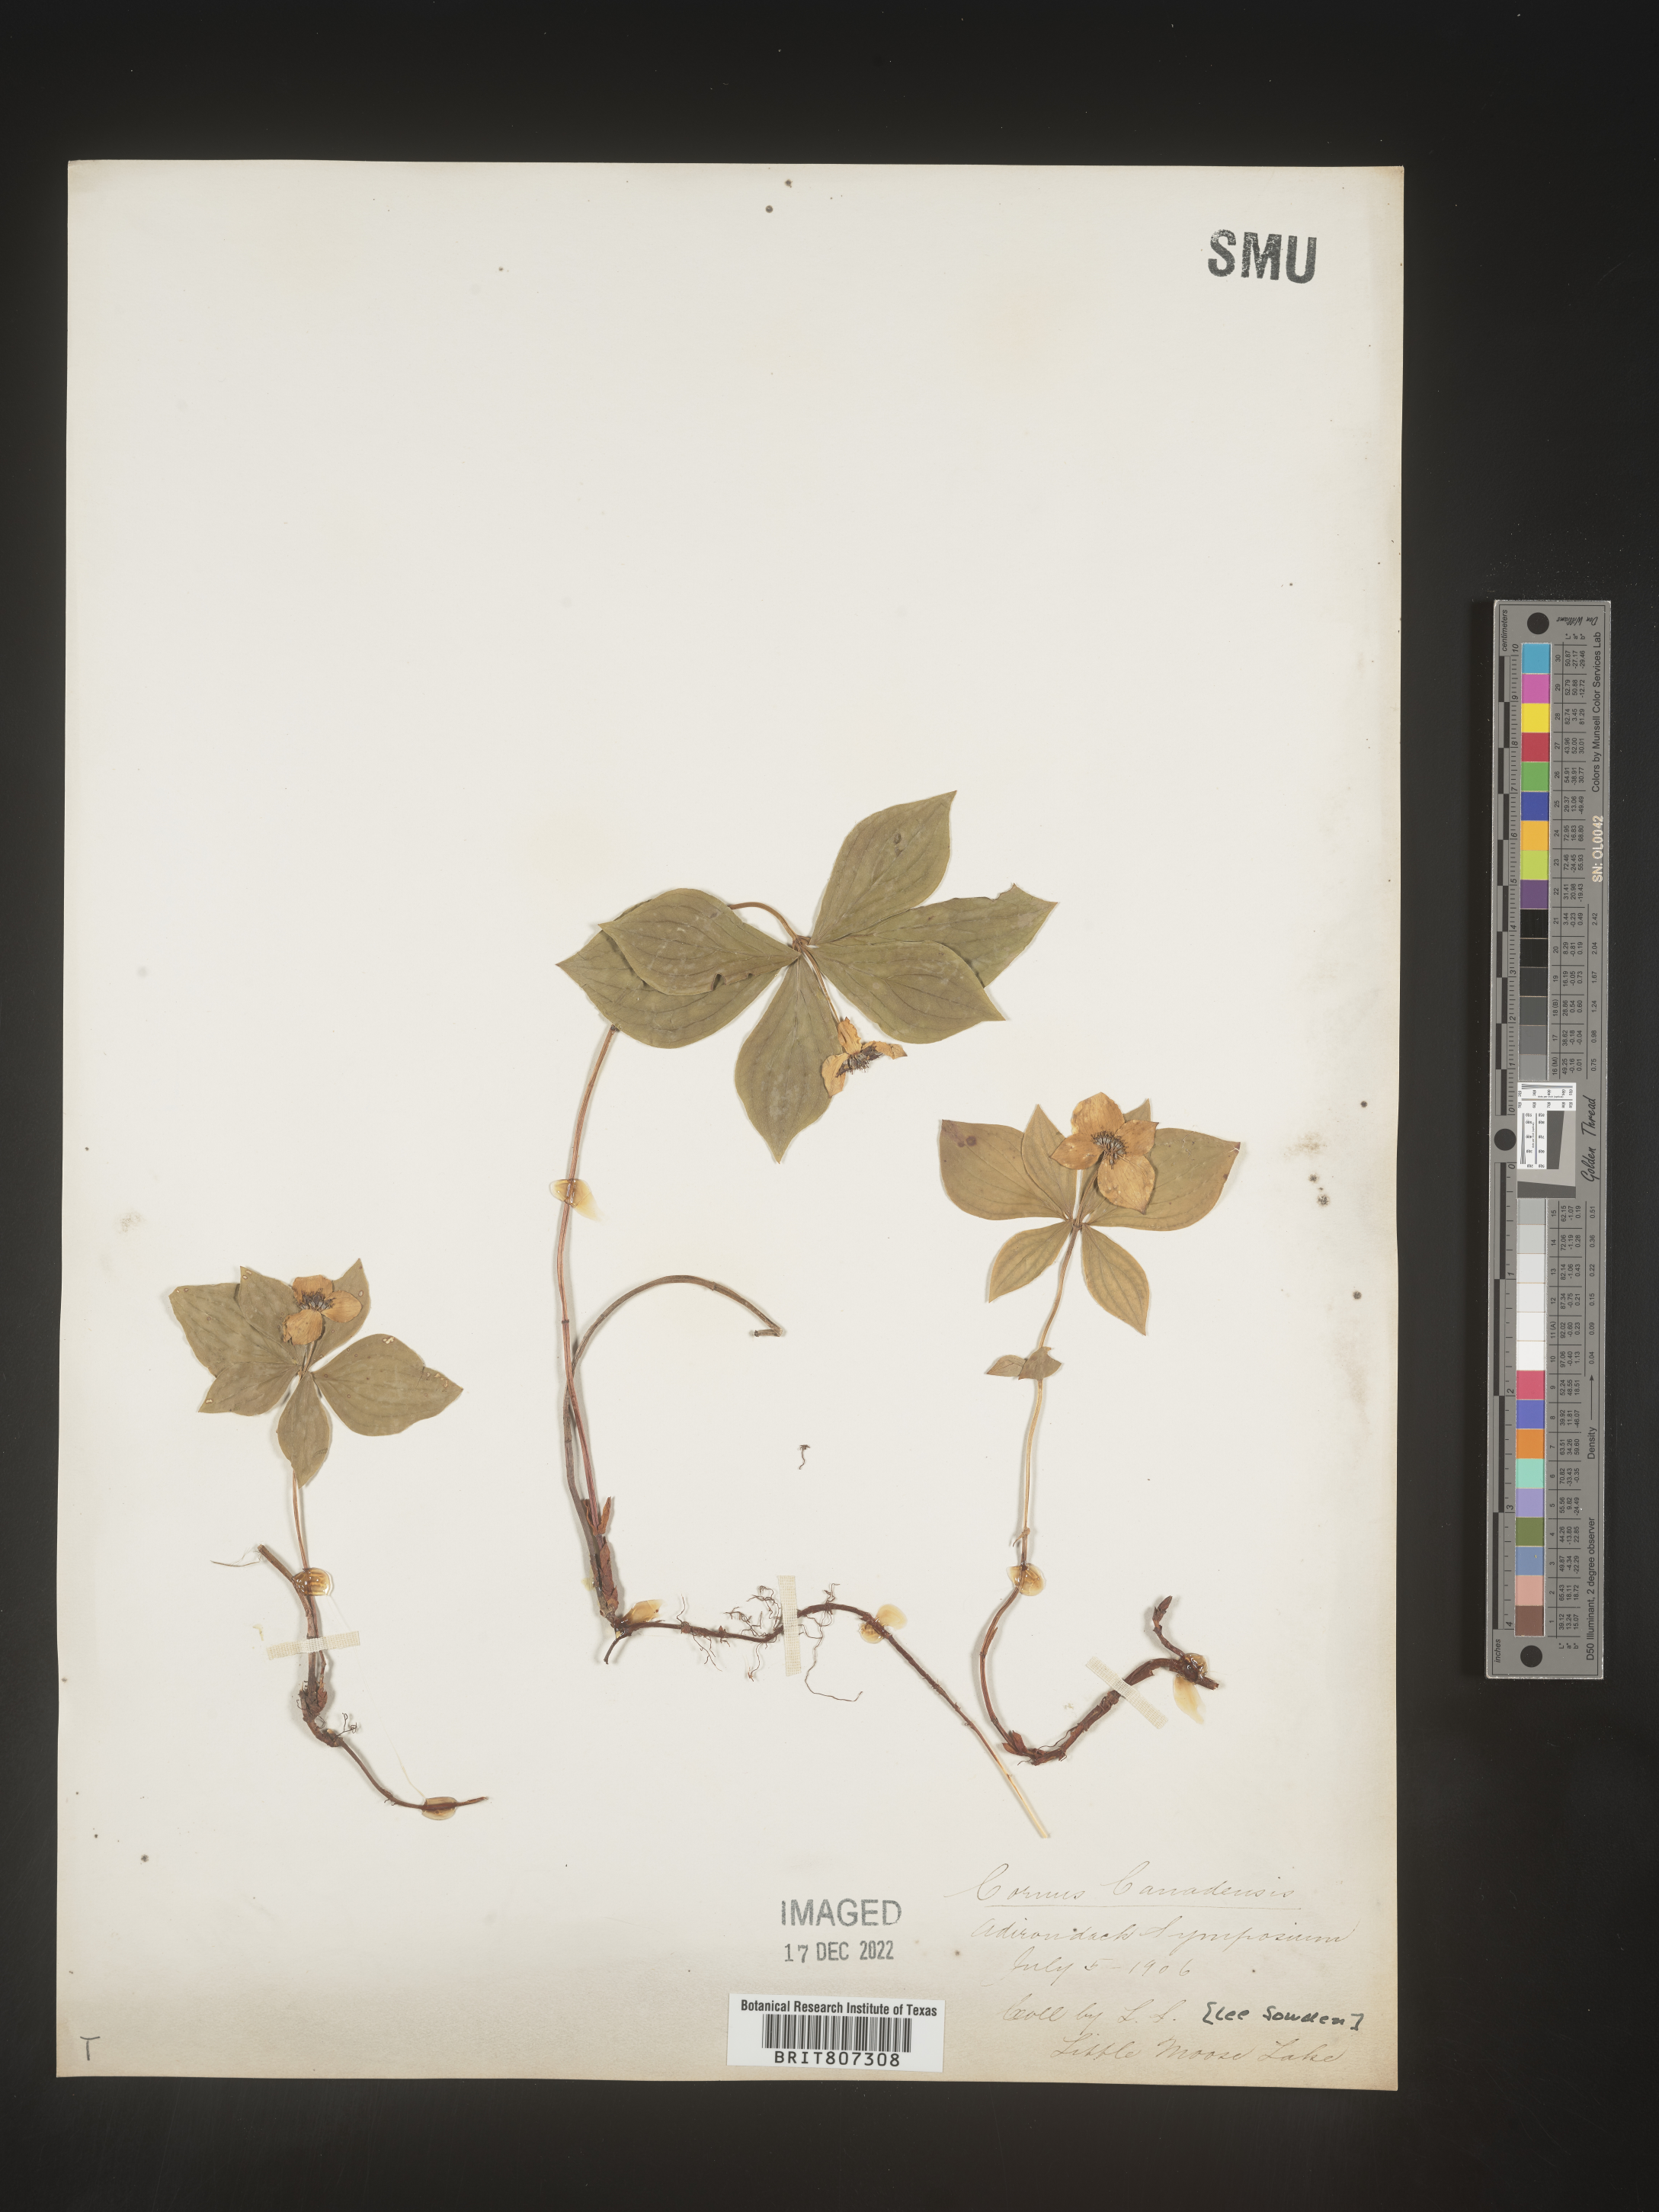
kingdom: Plantae
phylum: Tracheophyta
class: Magnoliopsida
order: Cornales
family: Cornaceae
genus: Cornus
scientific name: Cornus canadensis
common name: Creeping dogwood
